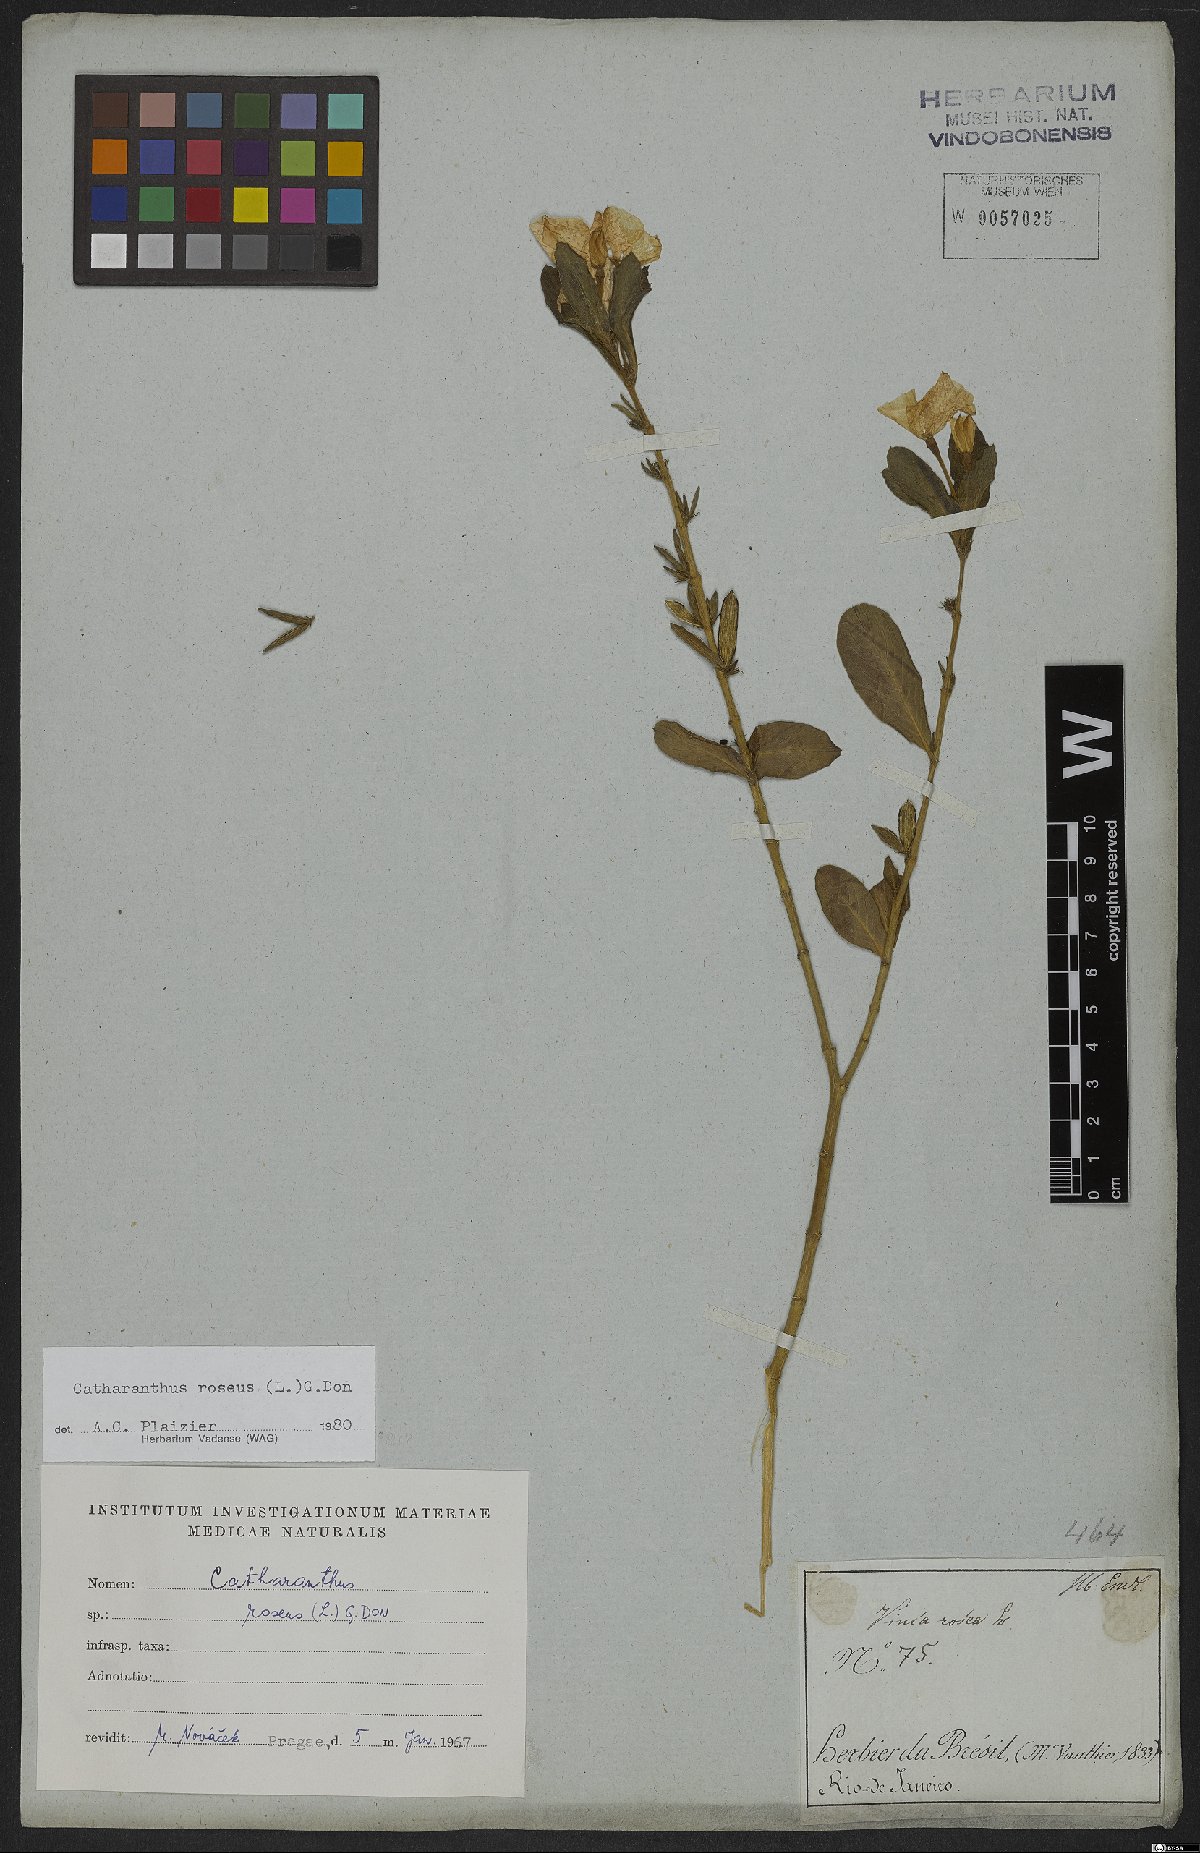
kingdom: Plantae
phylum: Tracheophyta
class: Magnoliopsida
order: Gentianales
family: Apocynaceae
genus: Catharanthus
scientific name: Catharanthus roseus
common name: Madagascar periwinkle
